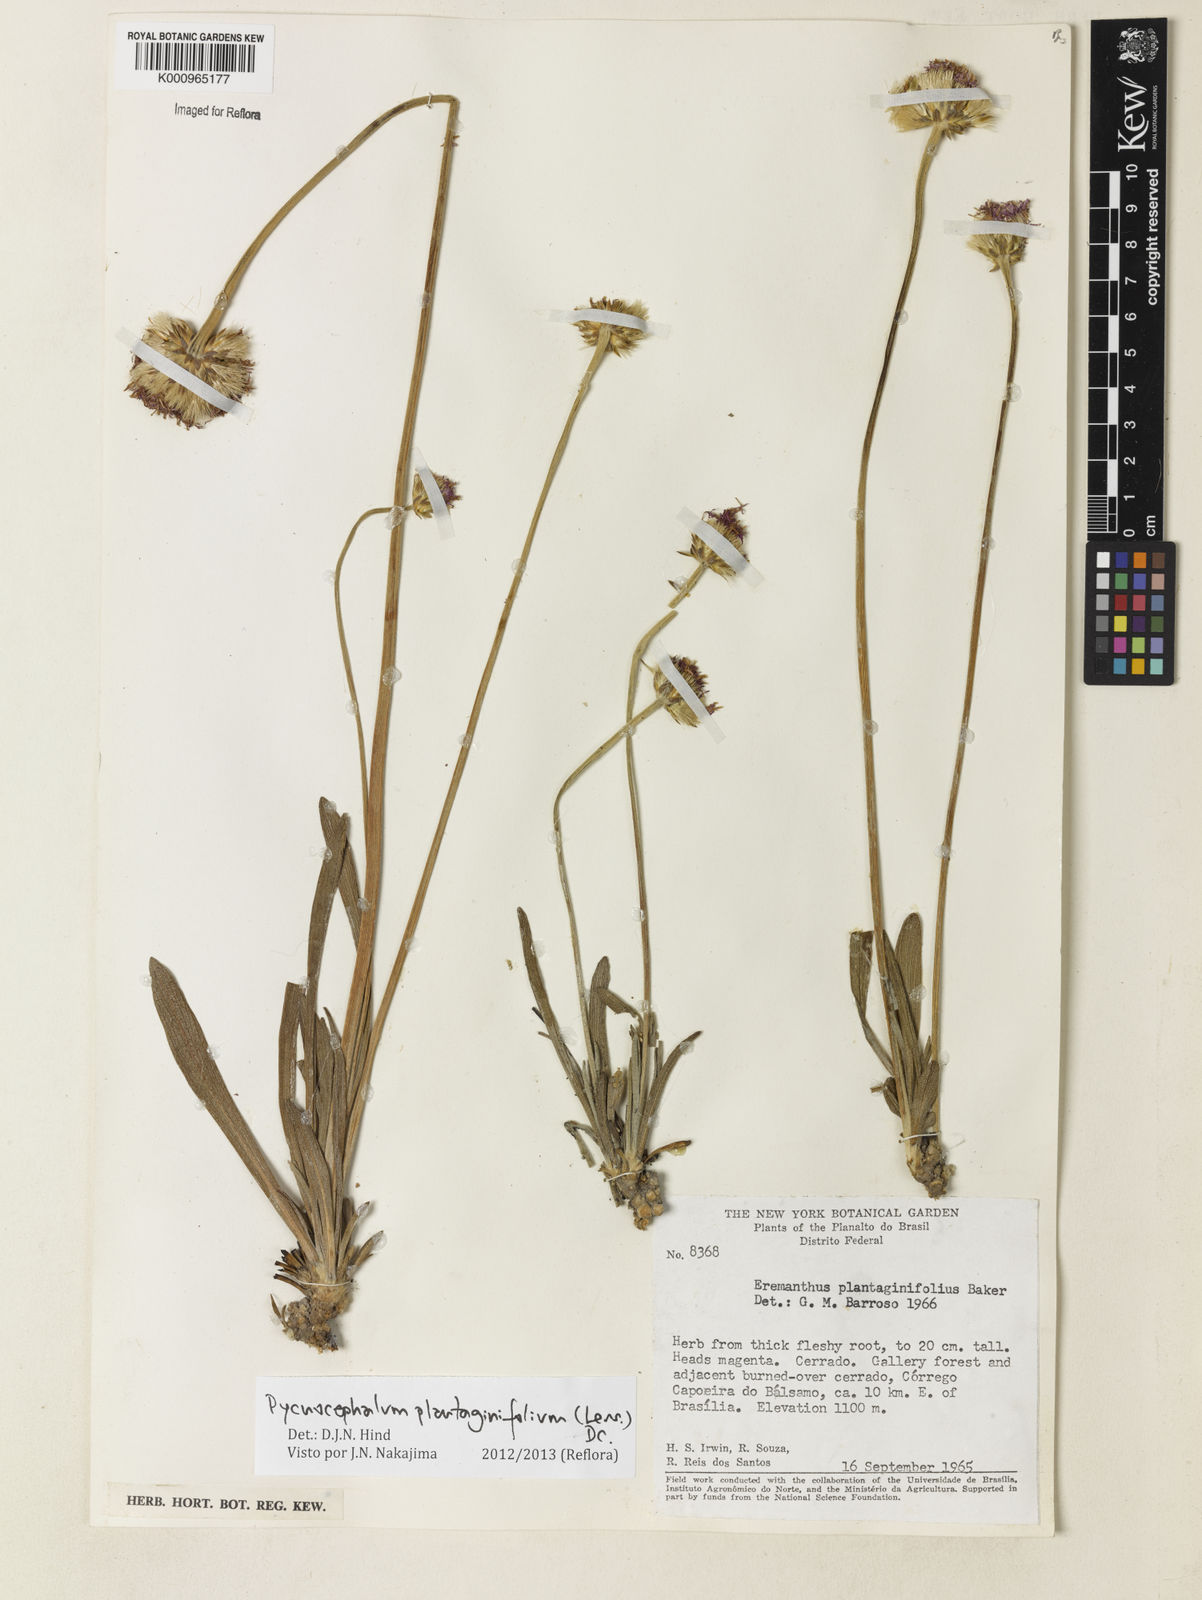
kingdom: Plantae
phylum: Tracheophyta
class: Magnoliopsida
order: Asterales
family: Asteraceae
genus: Chresta
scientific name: Chresta plantaginifolia
